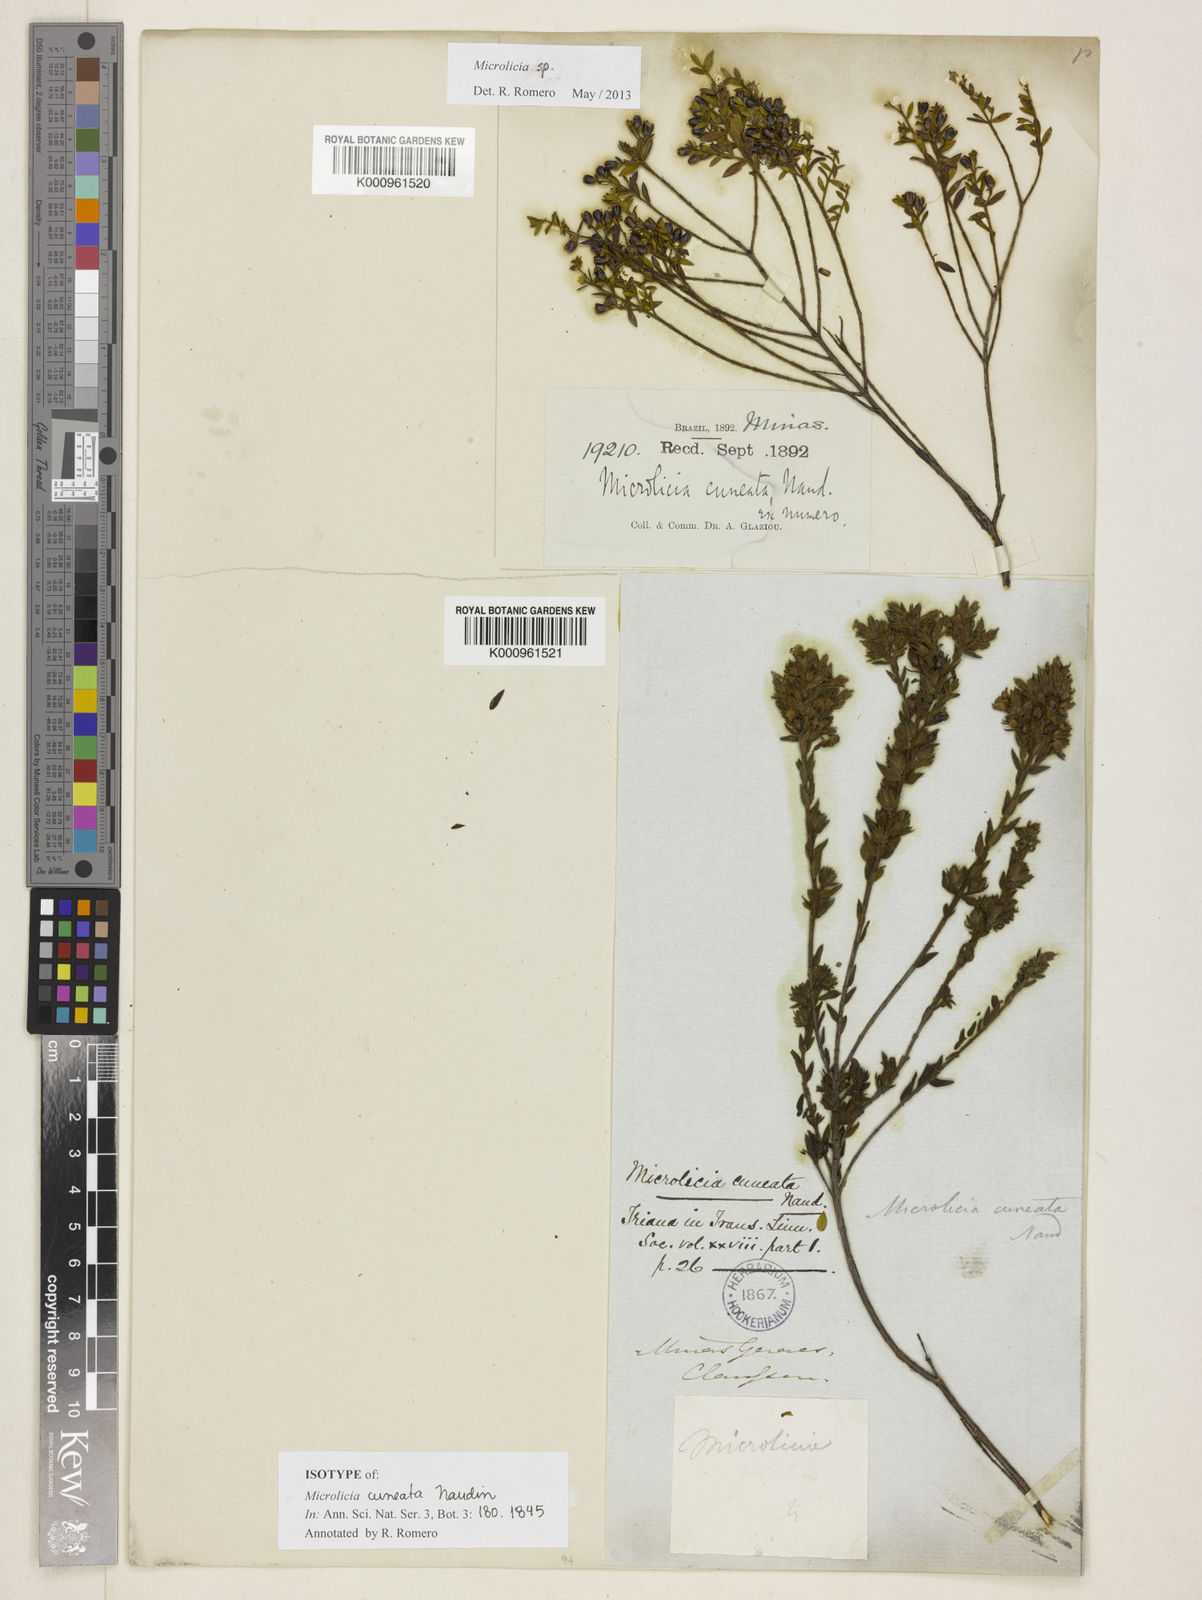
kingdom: Plantae
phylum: Tracheophyta
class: Magnoliopsida
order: Myrtales
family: Melastomataceae
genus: Microlicia
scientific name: Microlicia cuneata
